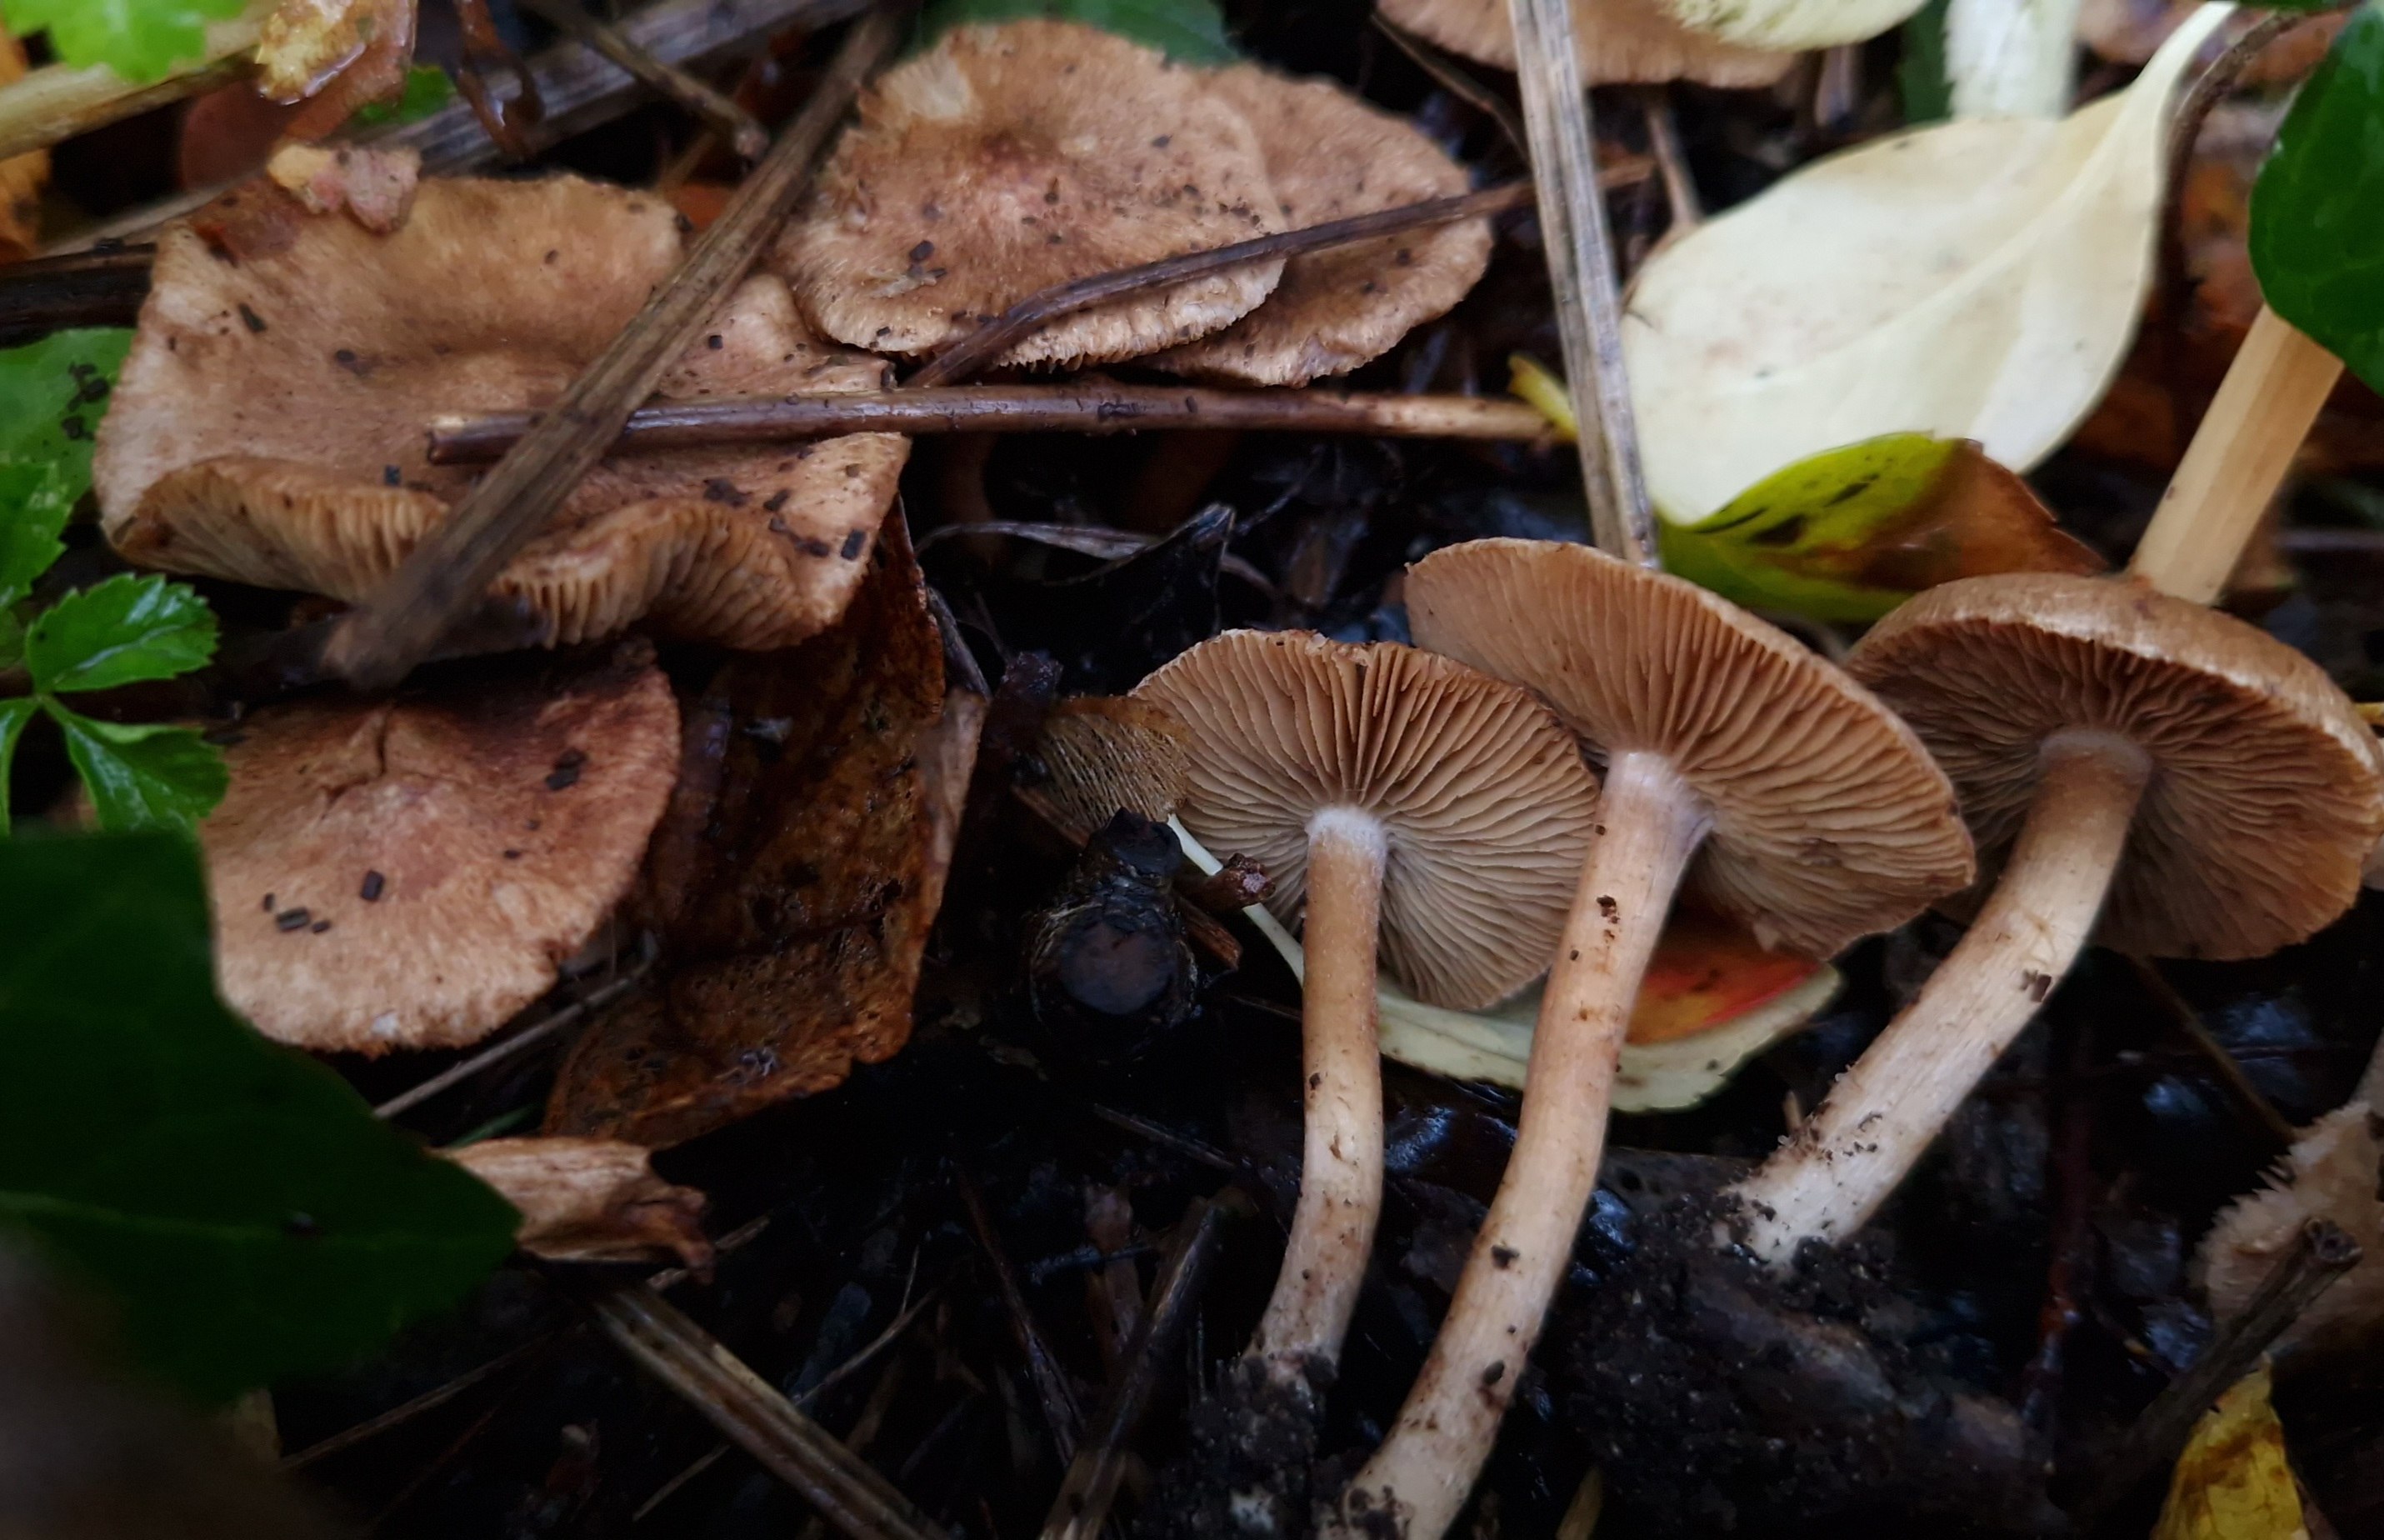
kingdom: Fungi
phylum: Basidiomycota
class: Agaricomycetes
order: Agaricales
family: Inocybaceae
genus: Inocybe
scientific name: Inocybe pseudodestricta
